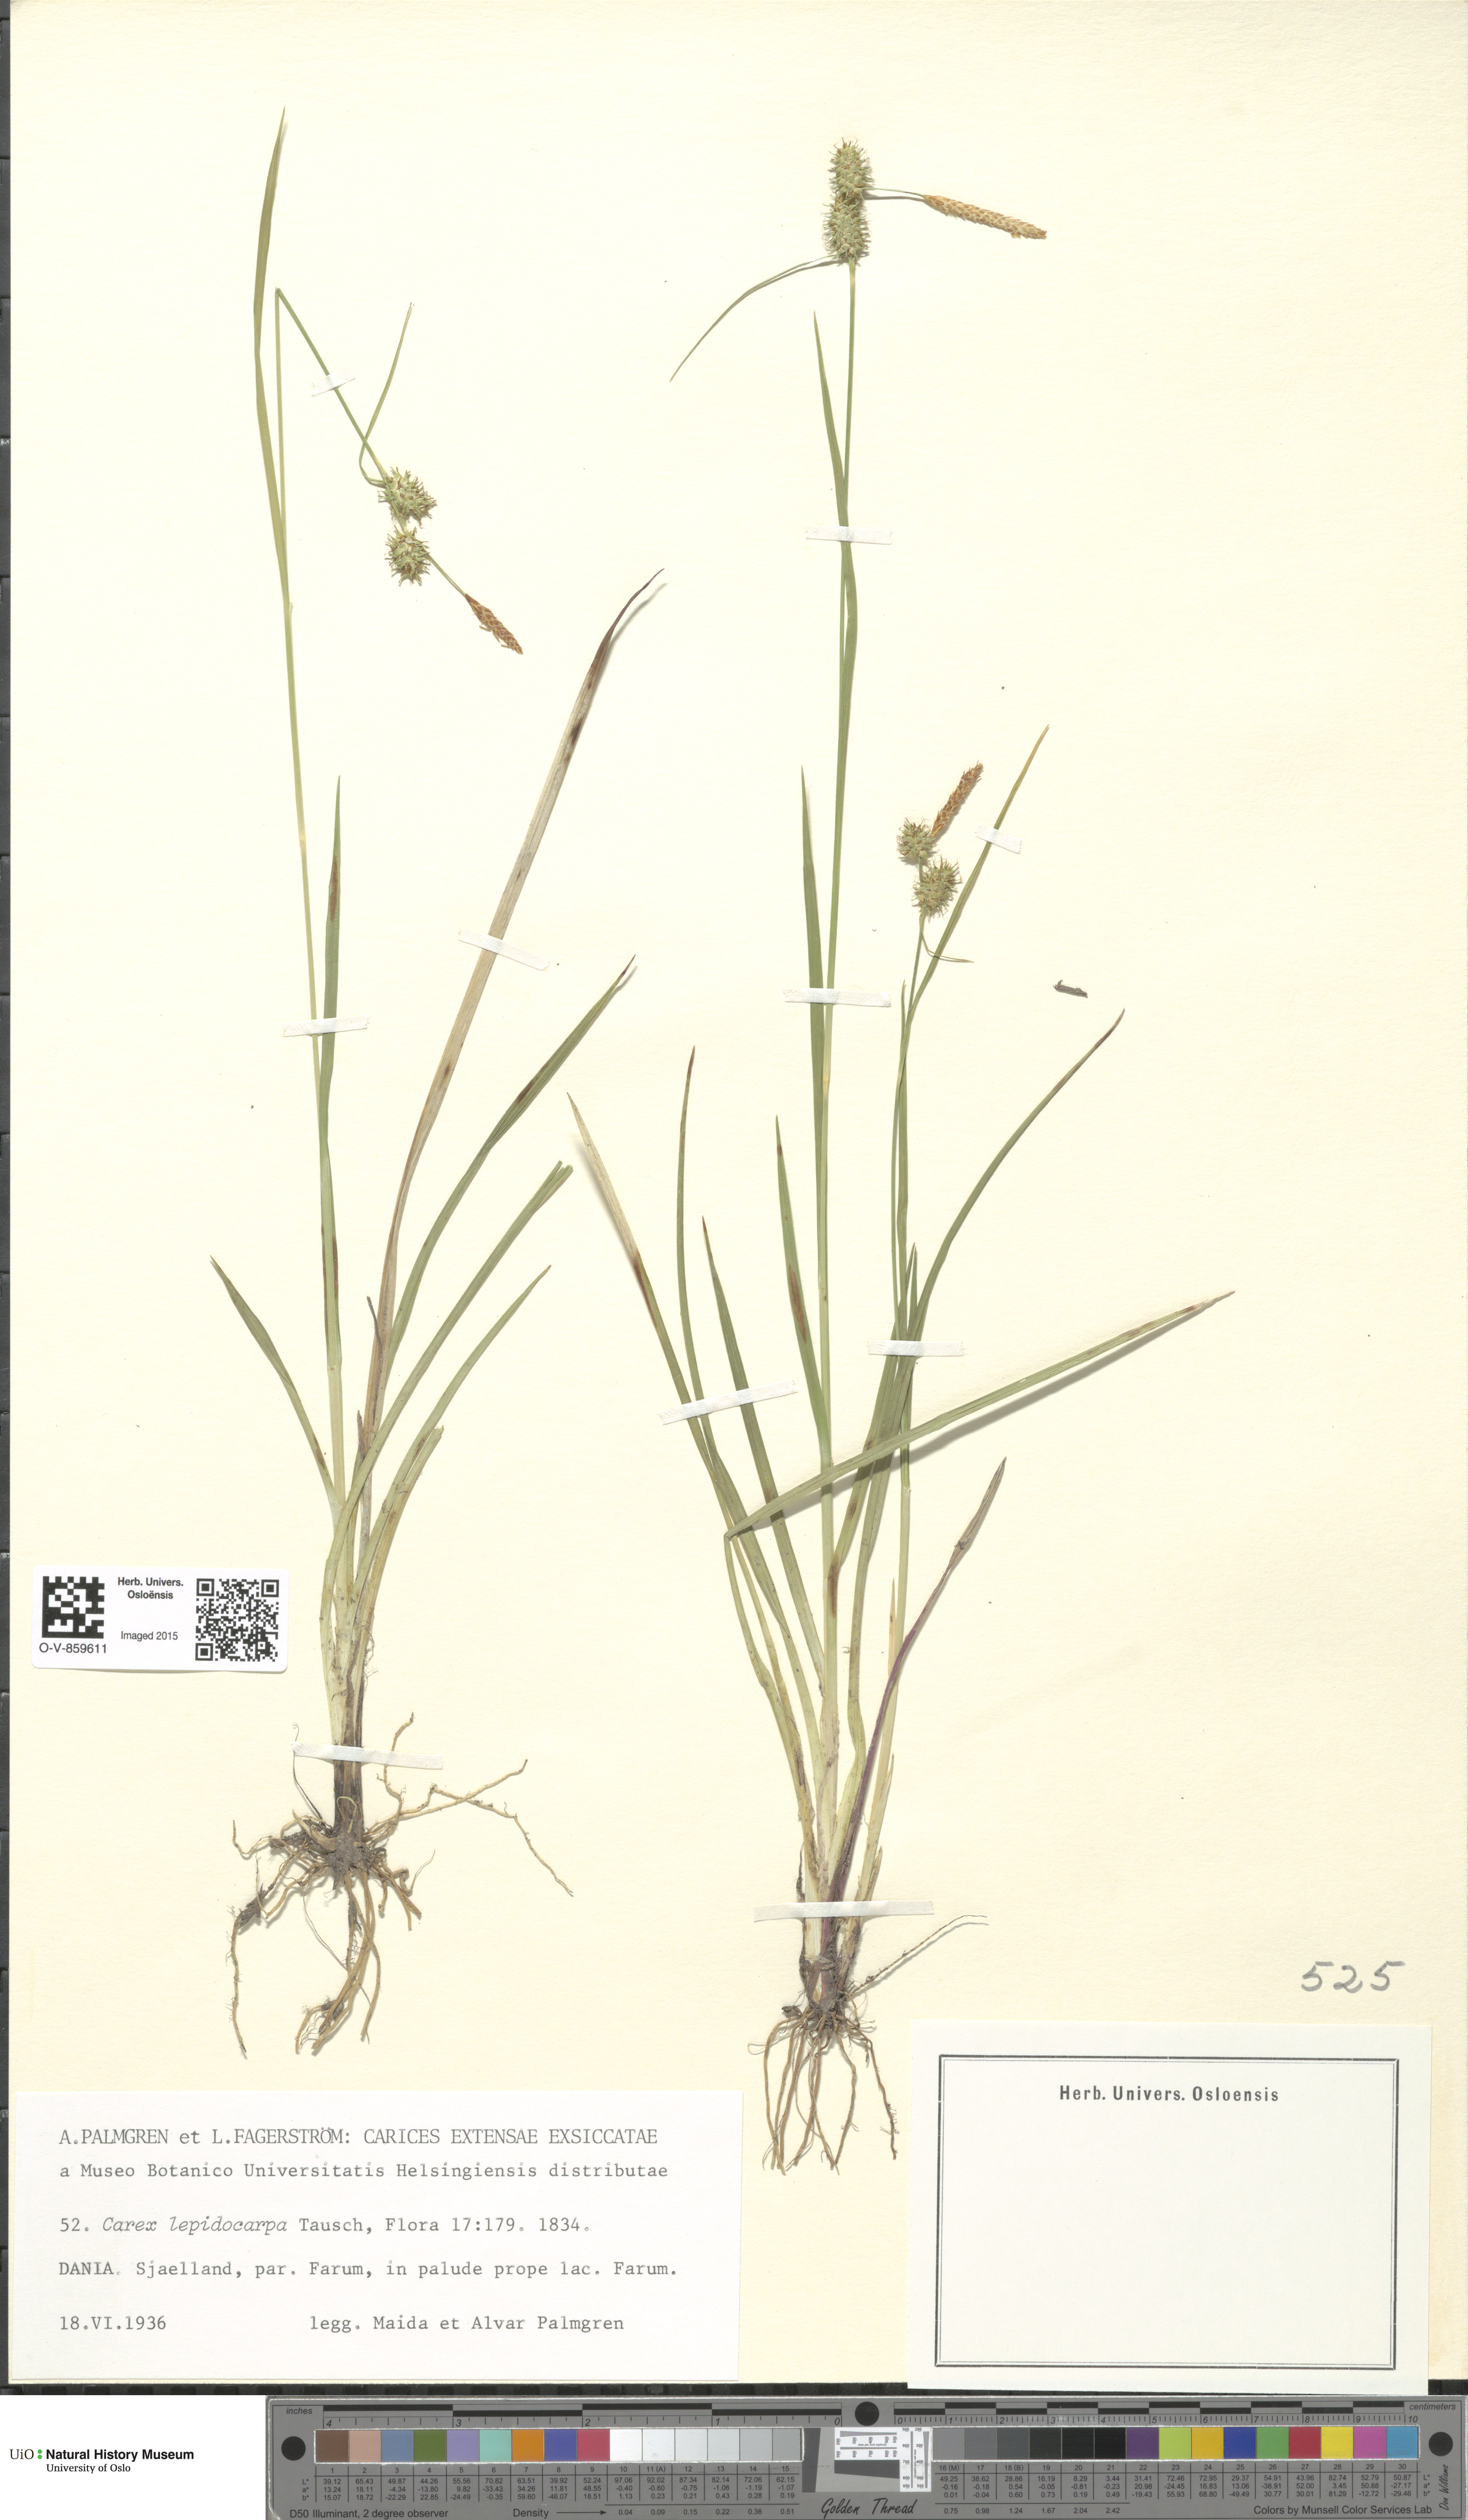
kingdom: Plantae
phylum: Tracheophyta
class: Liliopsida
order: Poales
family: Cyperaceae
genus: Carex
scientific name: Carex lepidocarpa
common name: Long-stalked yellow-sedge
